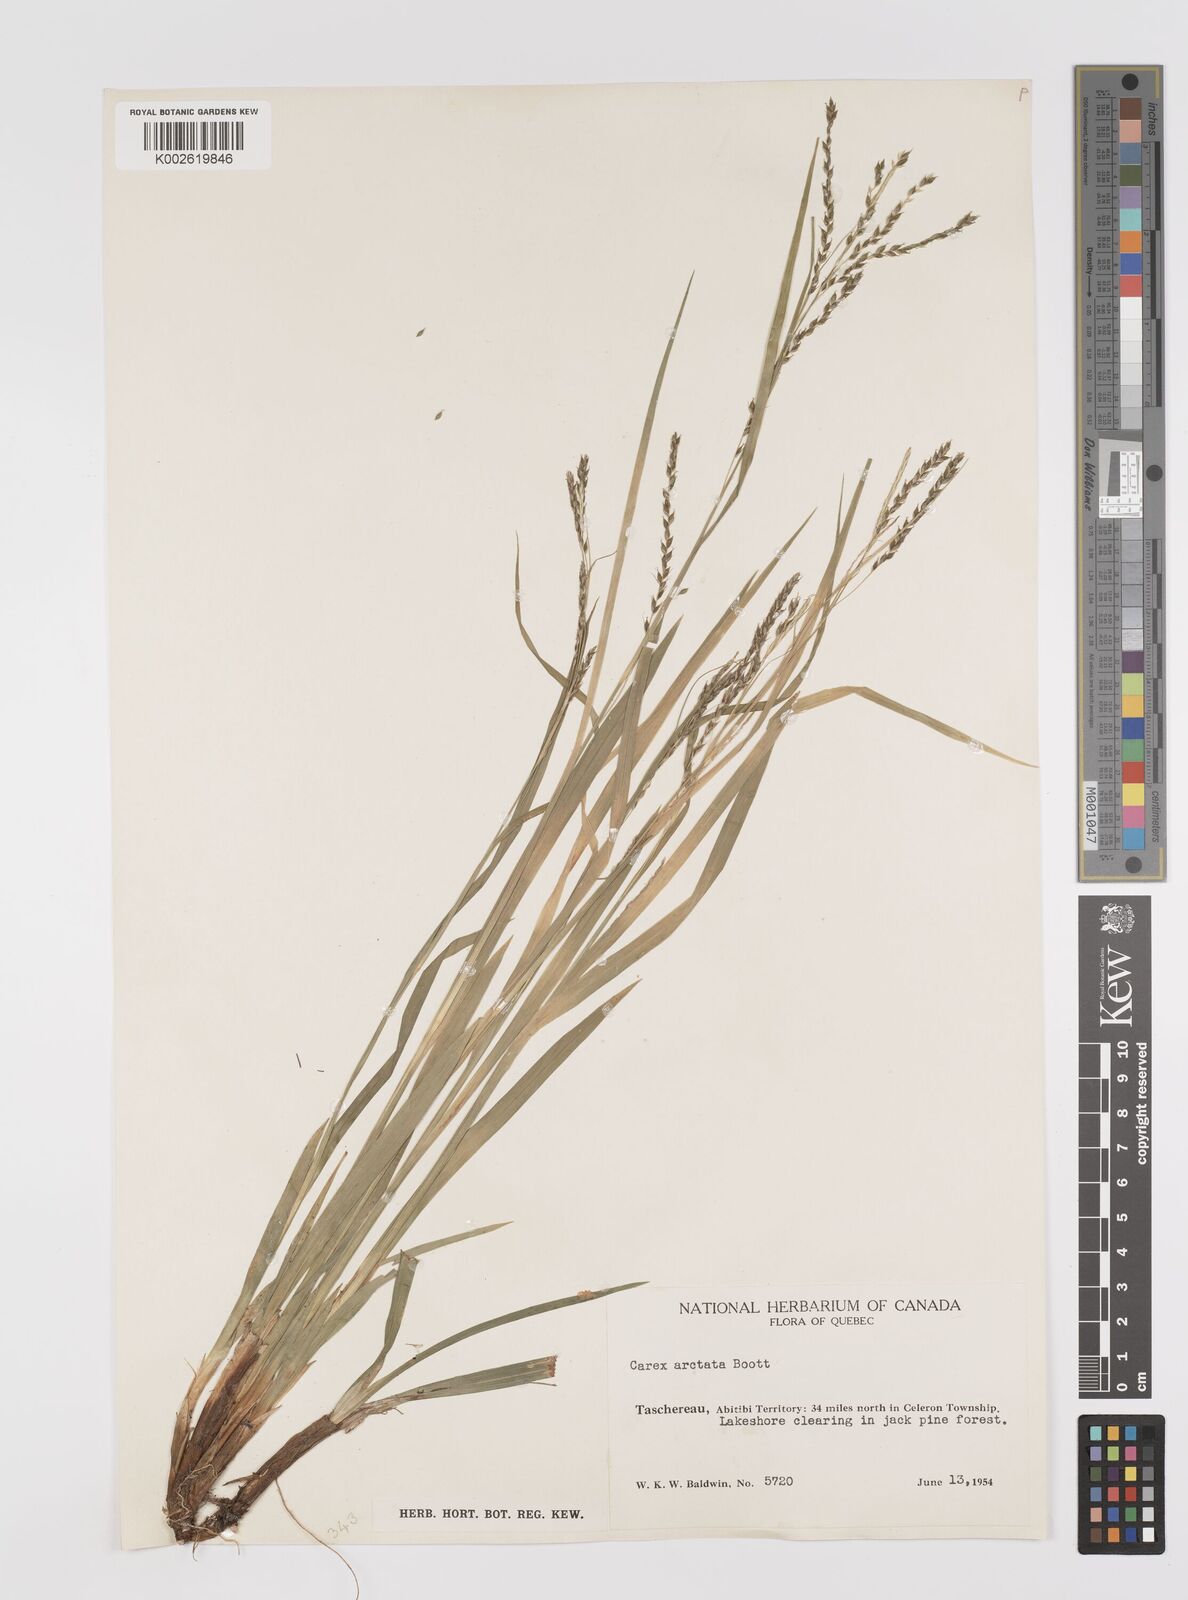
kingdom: Plantae
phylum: Tracheophyta
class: Liliopsida
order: Poales
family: Cyperaceae
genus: Carex
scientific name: Carex arctata
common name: Black sedge
